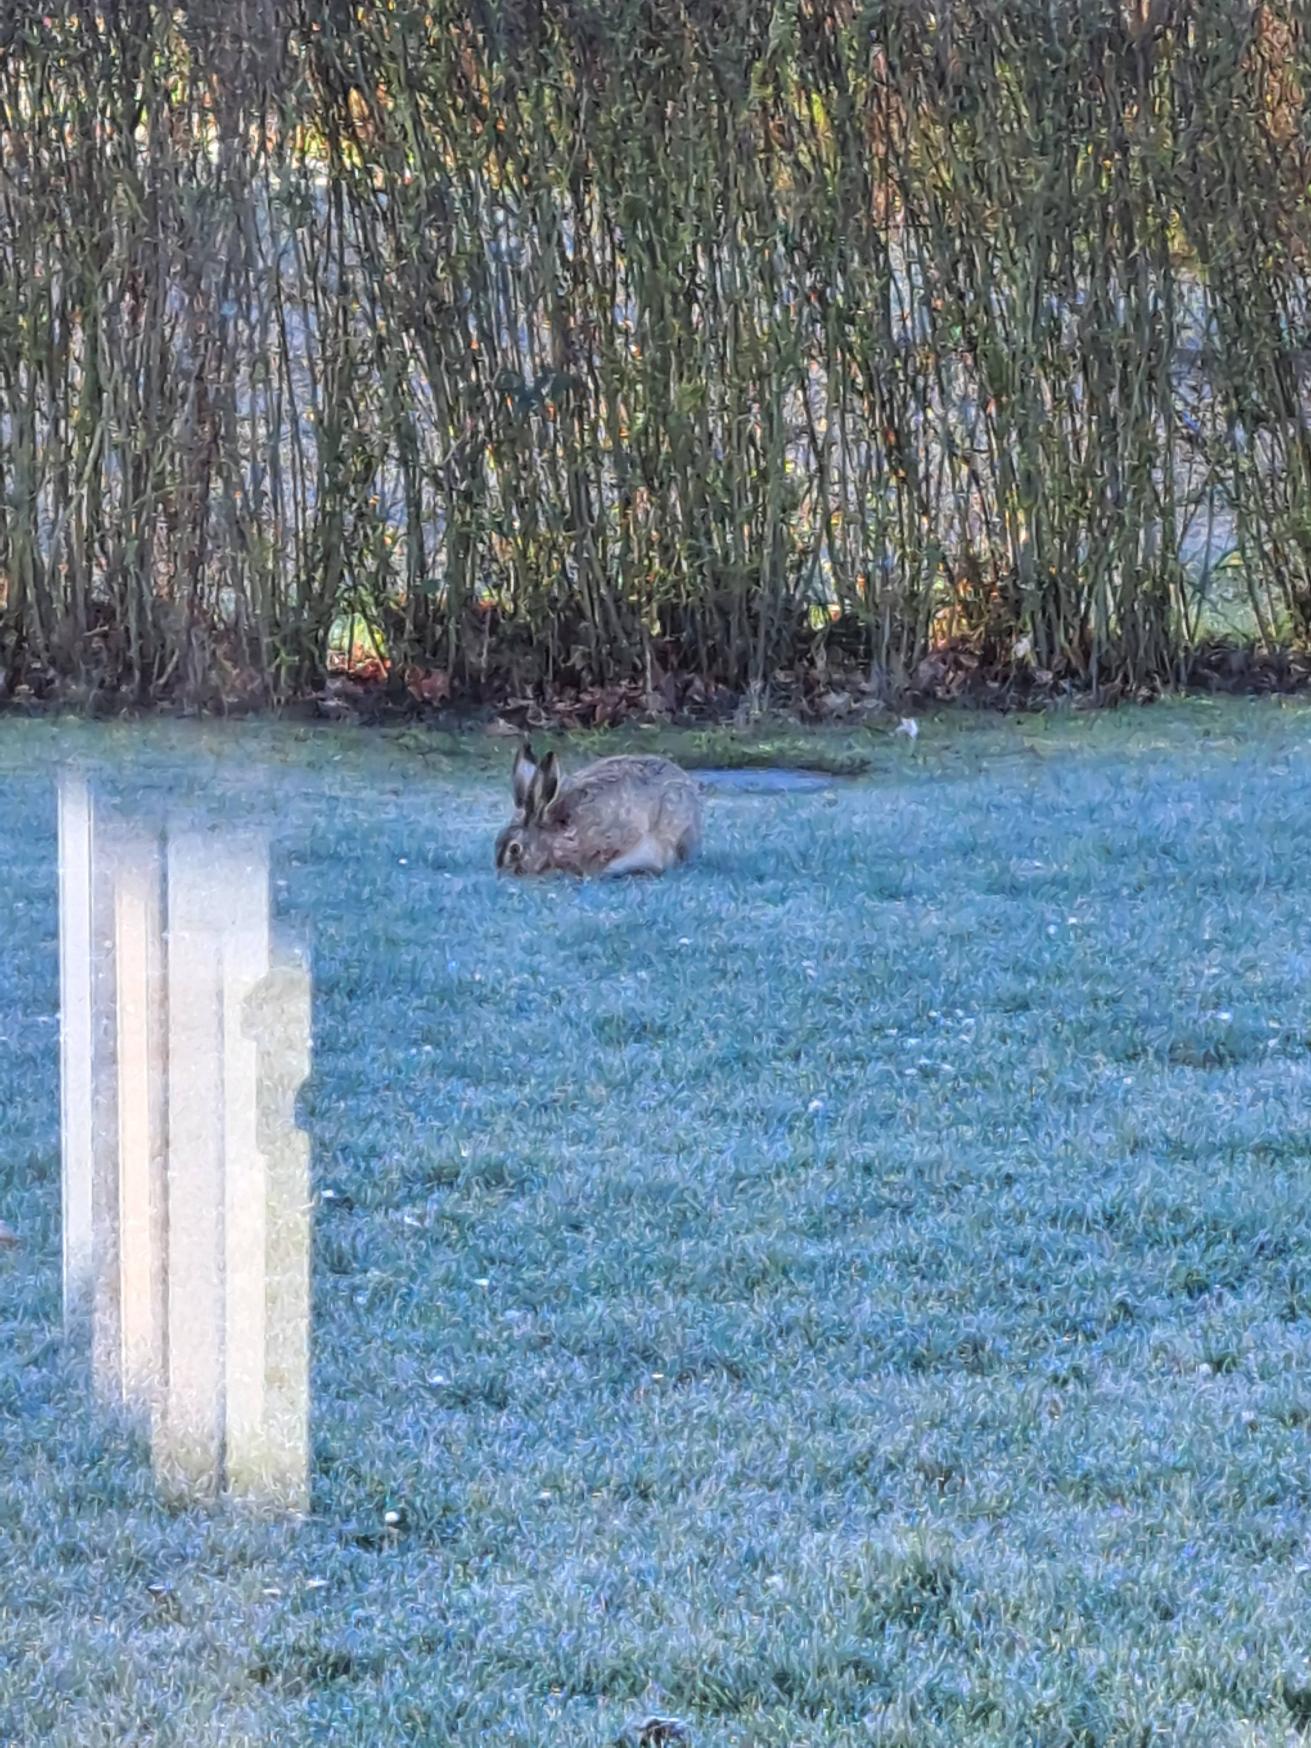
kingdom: Animalia
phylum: Chordata
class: Mammalia
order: Lagomorpha
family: Leporidae
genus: Lepus
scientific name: Lepus europaeus
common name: Hare
